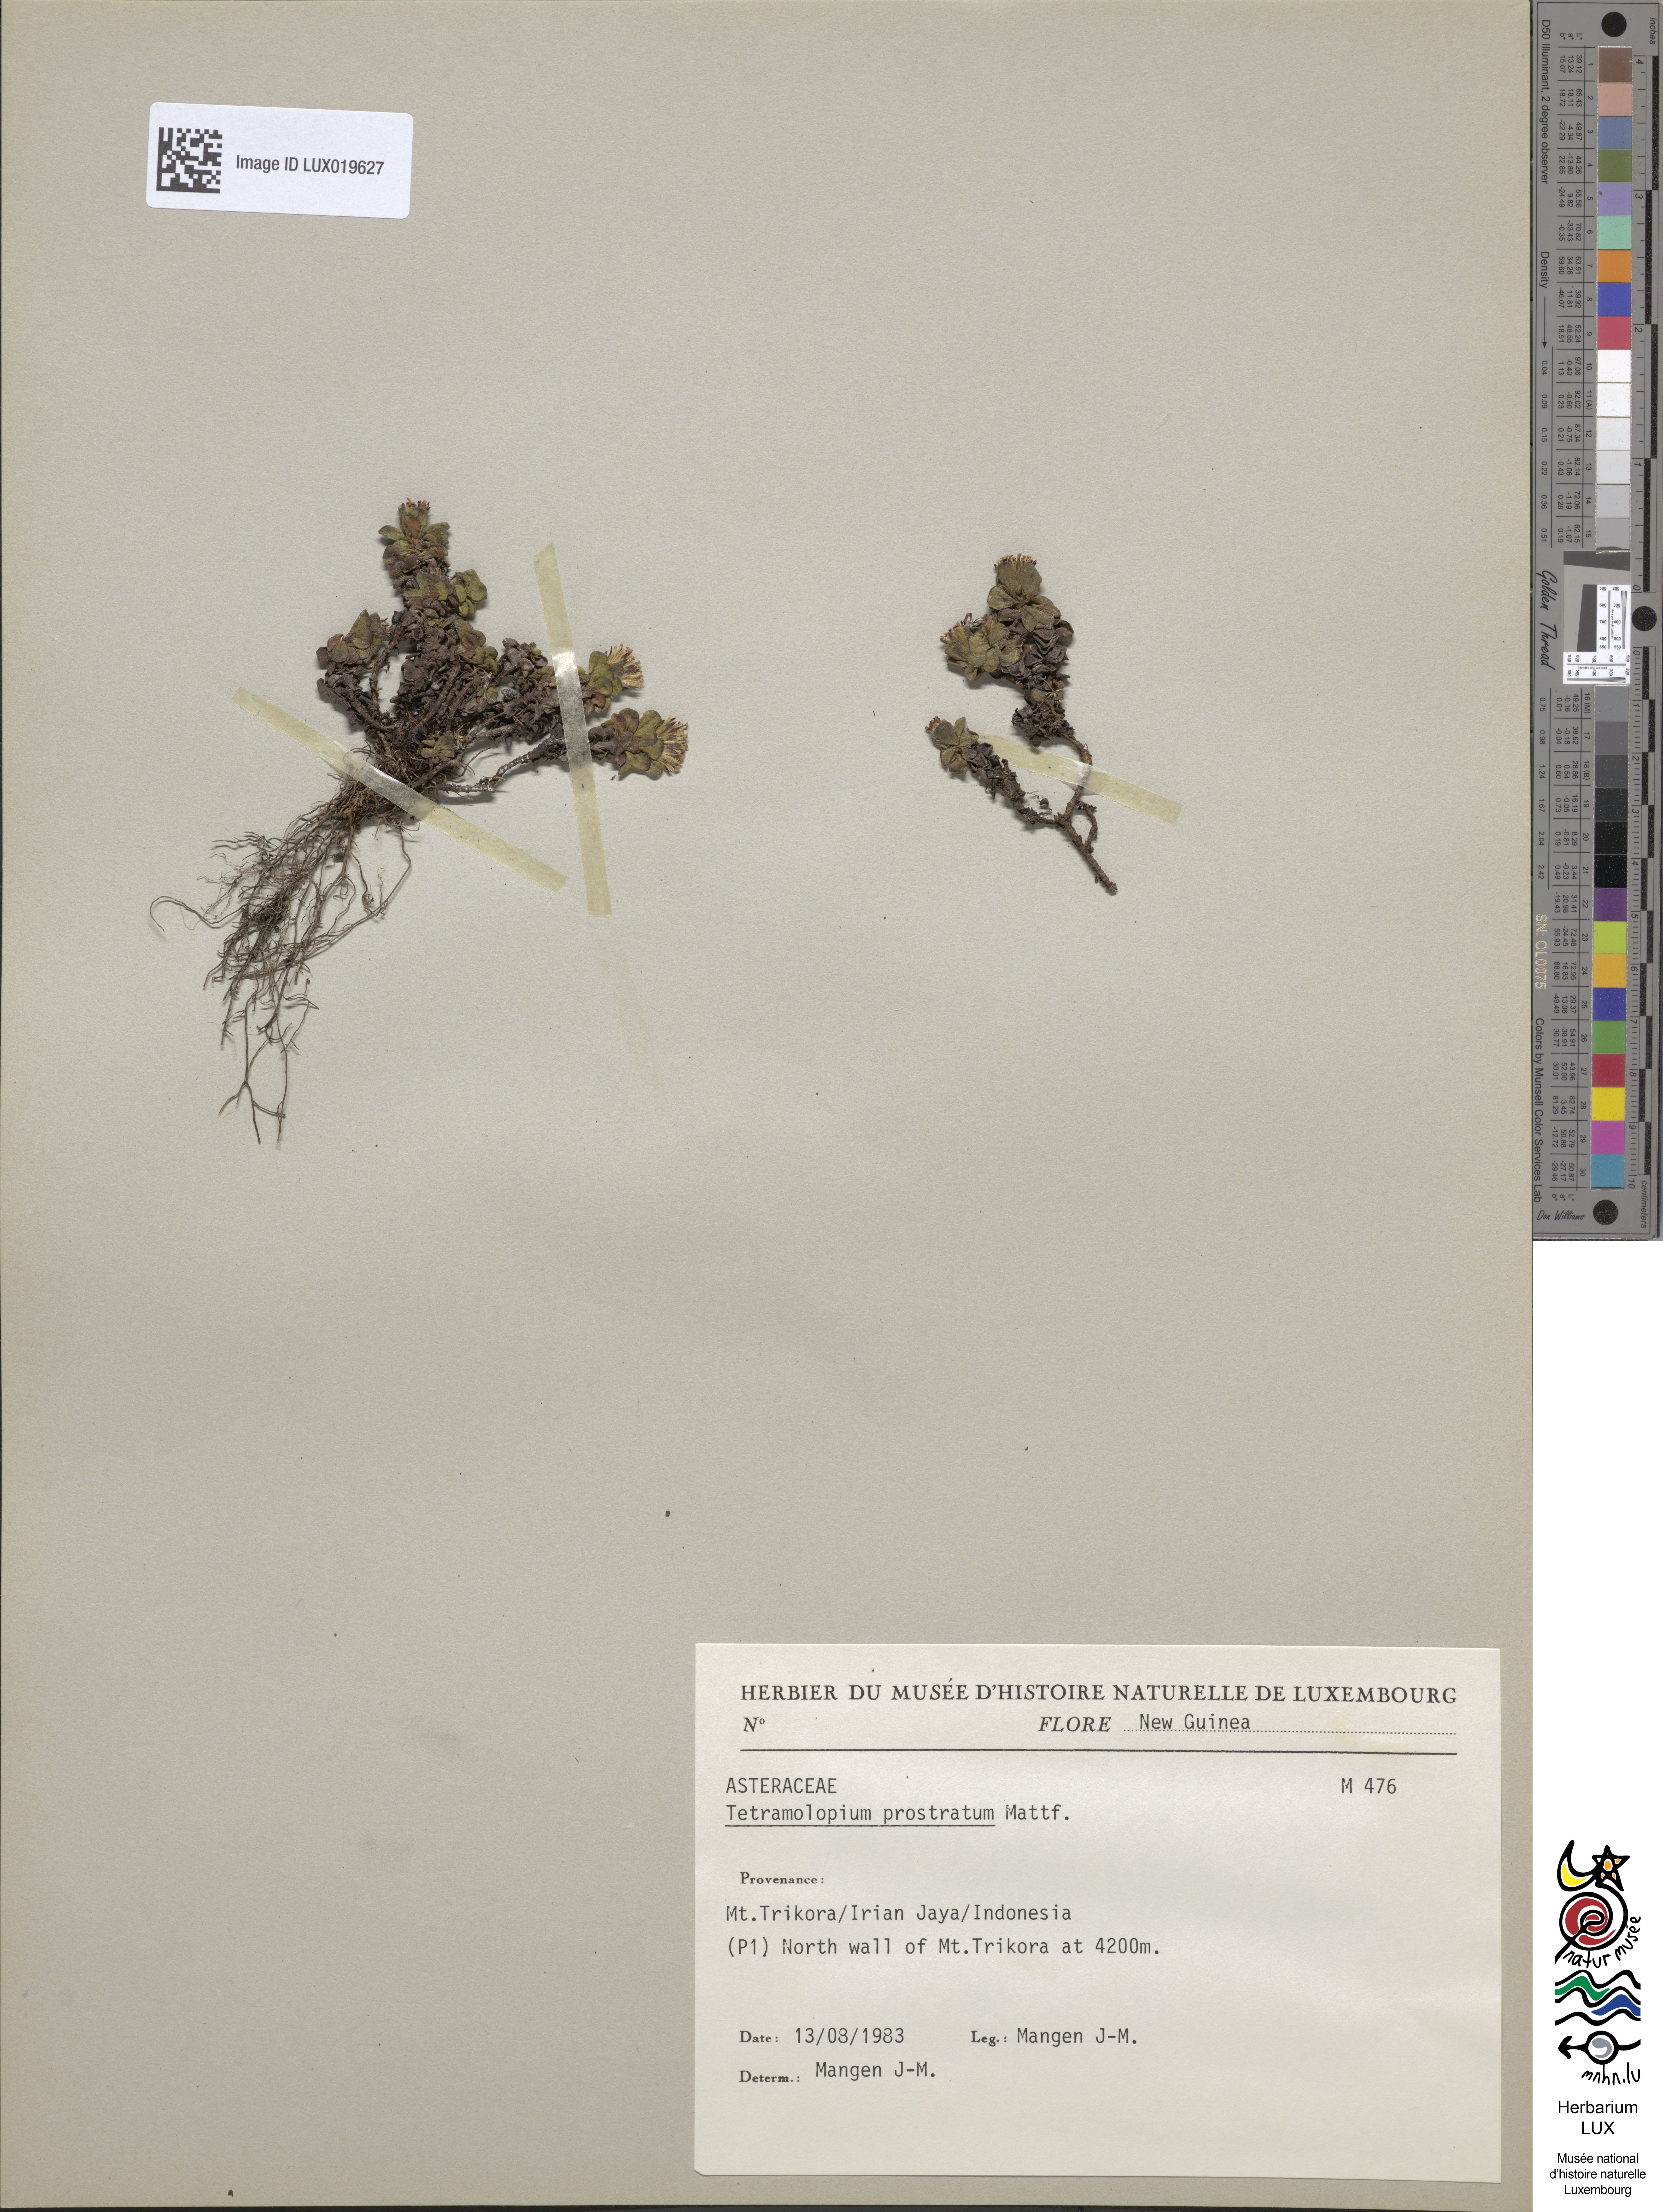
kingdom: Plantae
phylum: Tracheophyta
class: Magnoliopsida
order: Asterales
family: Asteraceae
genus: Tetramolopium
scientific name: Tetramolopium prostratum
